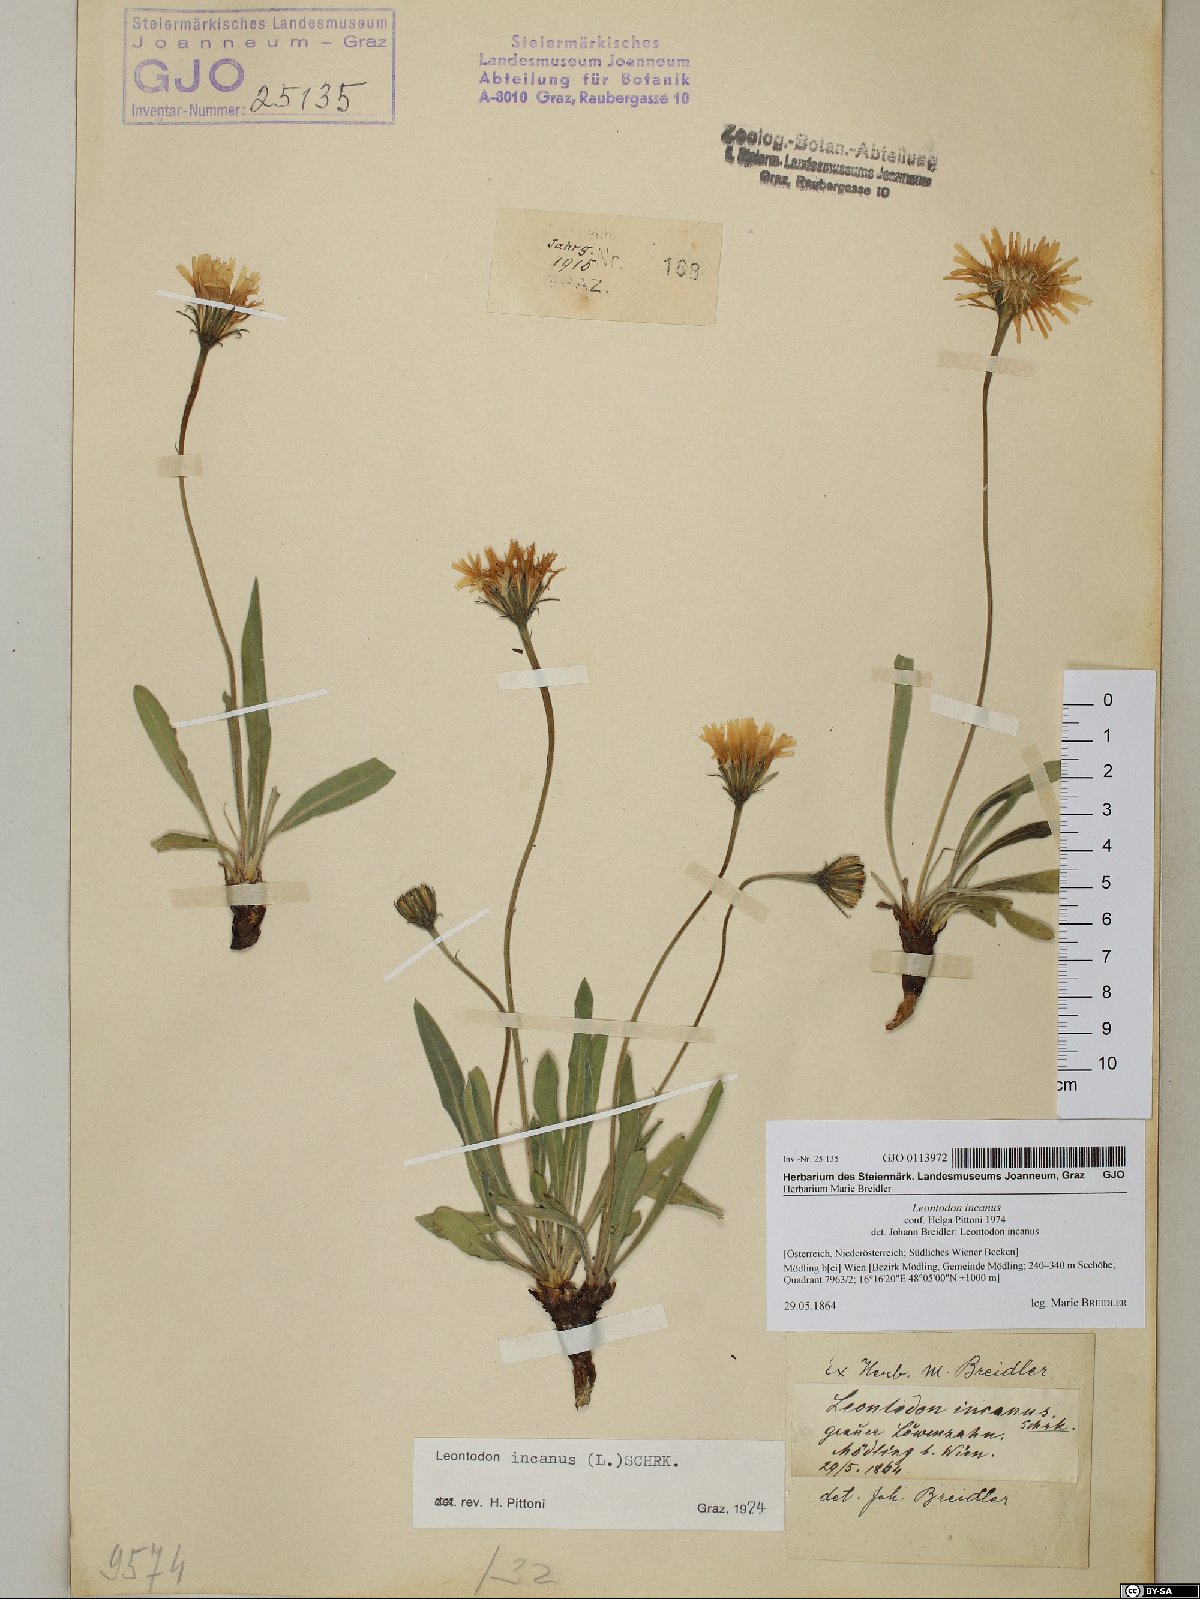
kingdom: Plantae
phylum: Tracheophyta
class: Magnoliopsida
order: Asterales
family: Asteraceae
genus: Leontodon
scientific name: Leontodon incanus
